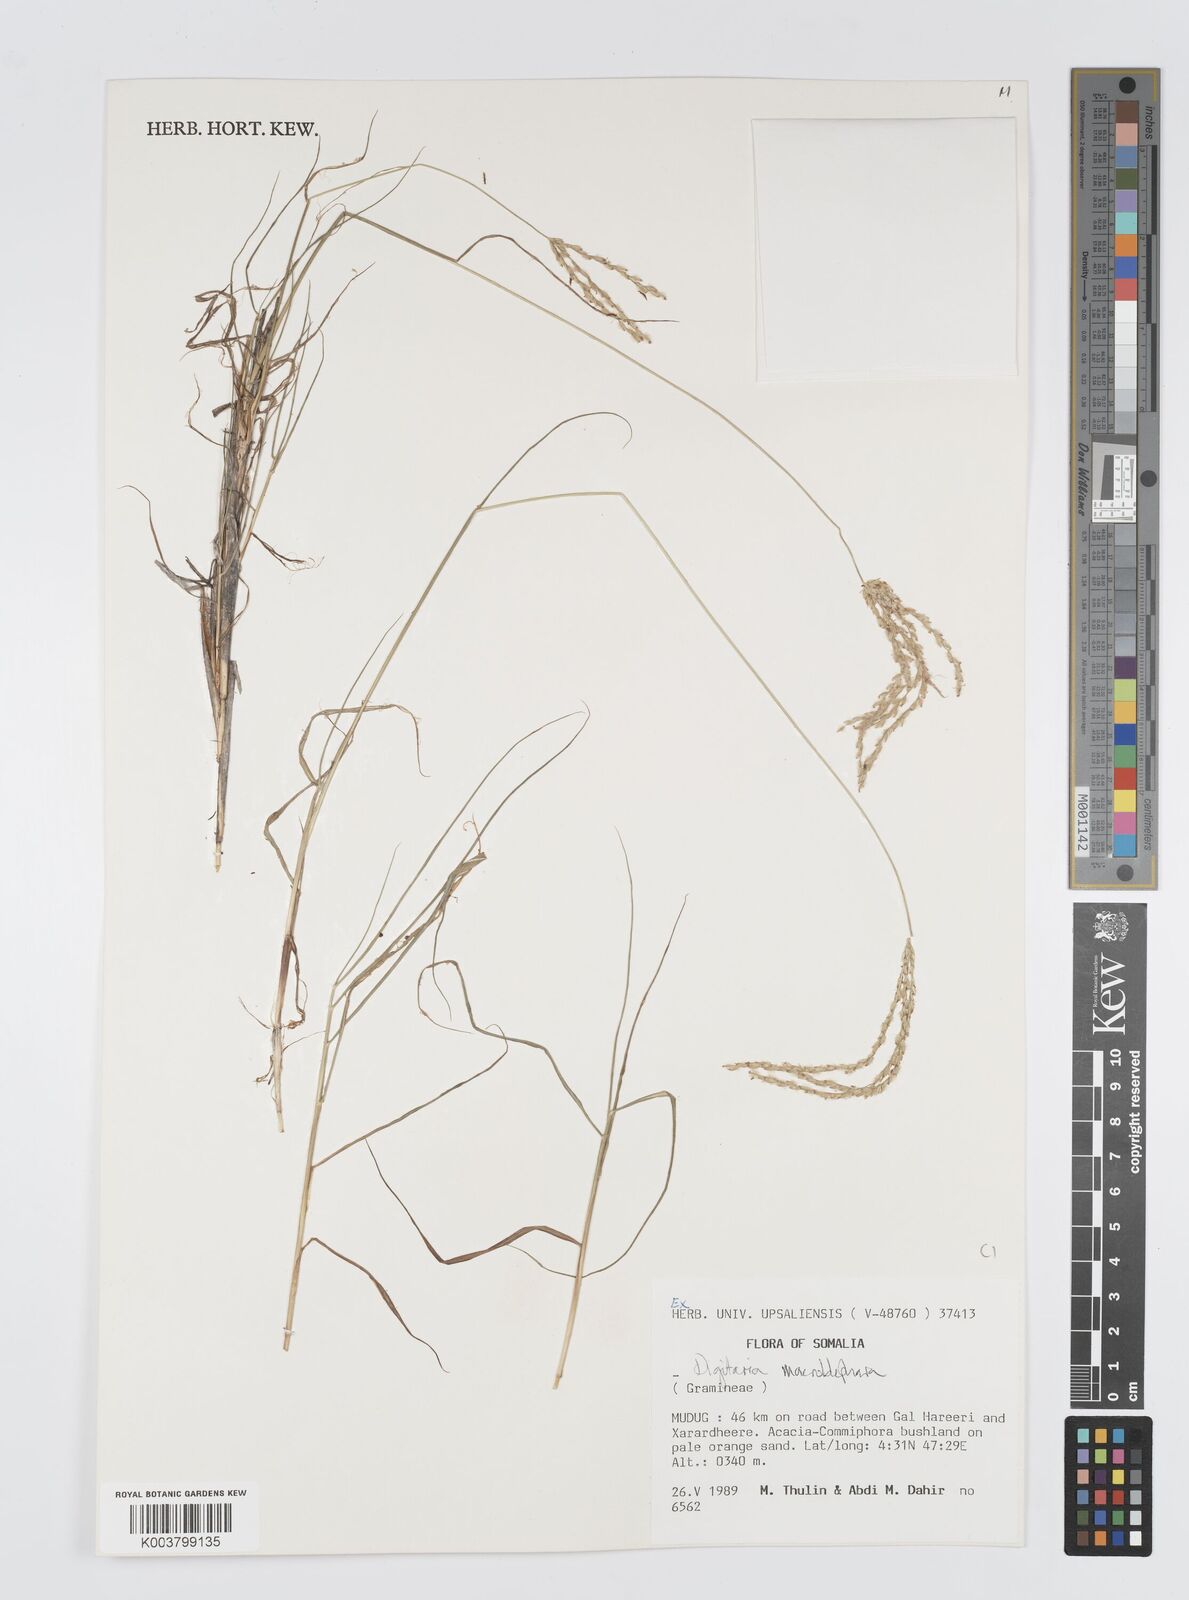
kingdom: Plantae
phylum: Tracheophyta
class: Liliopsida
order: Poales
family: Poaceae
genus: Digitaria
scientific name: Digitaria macroblephara
